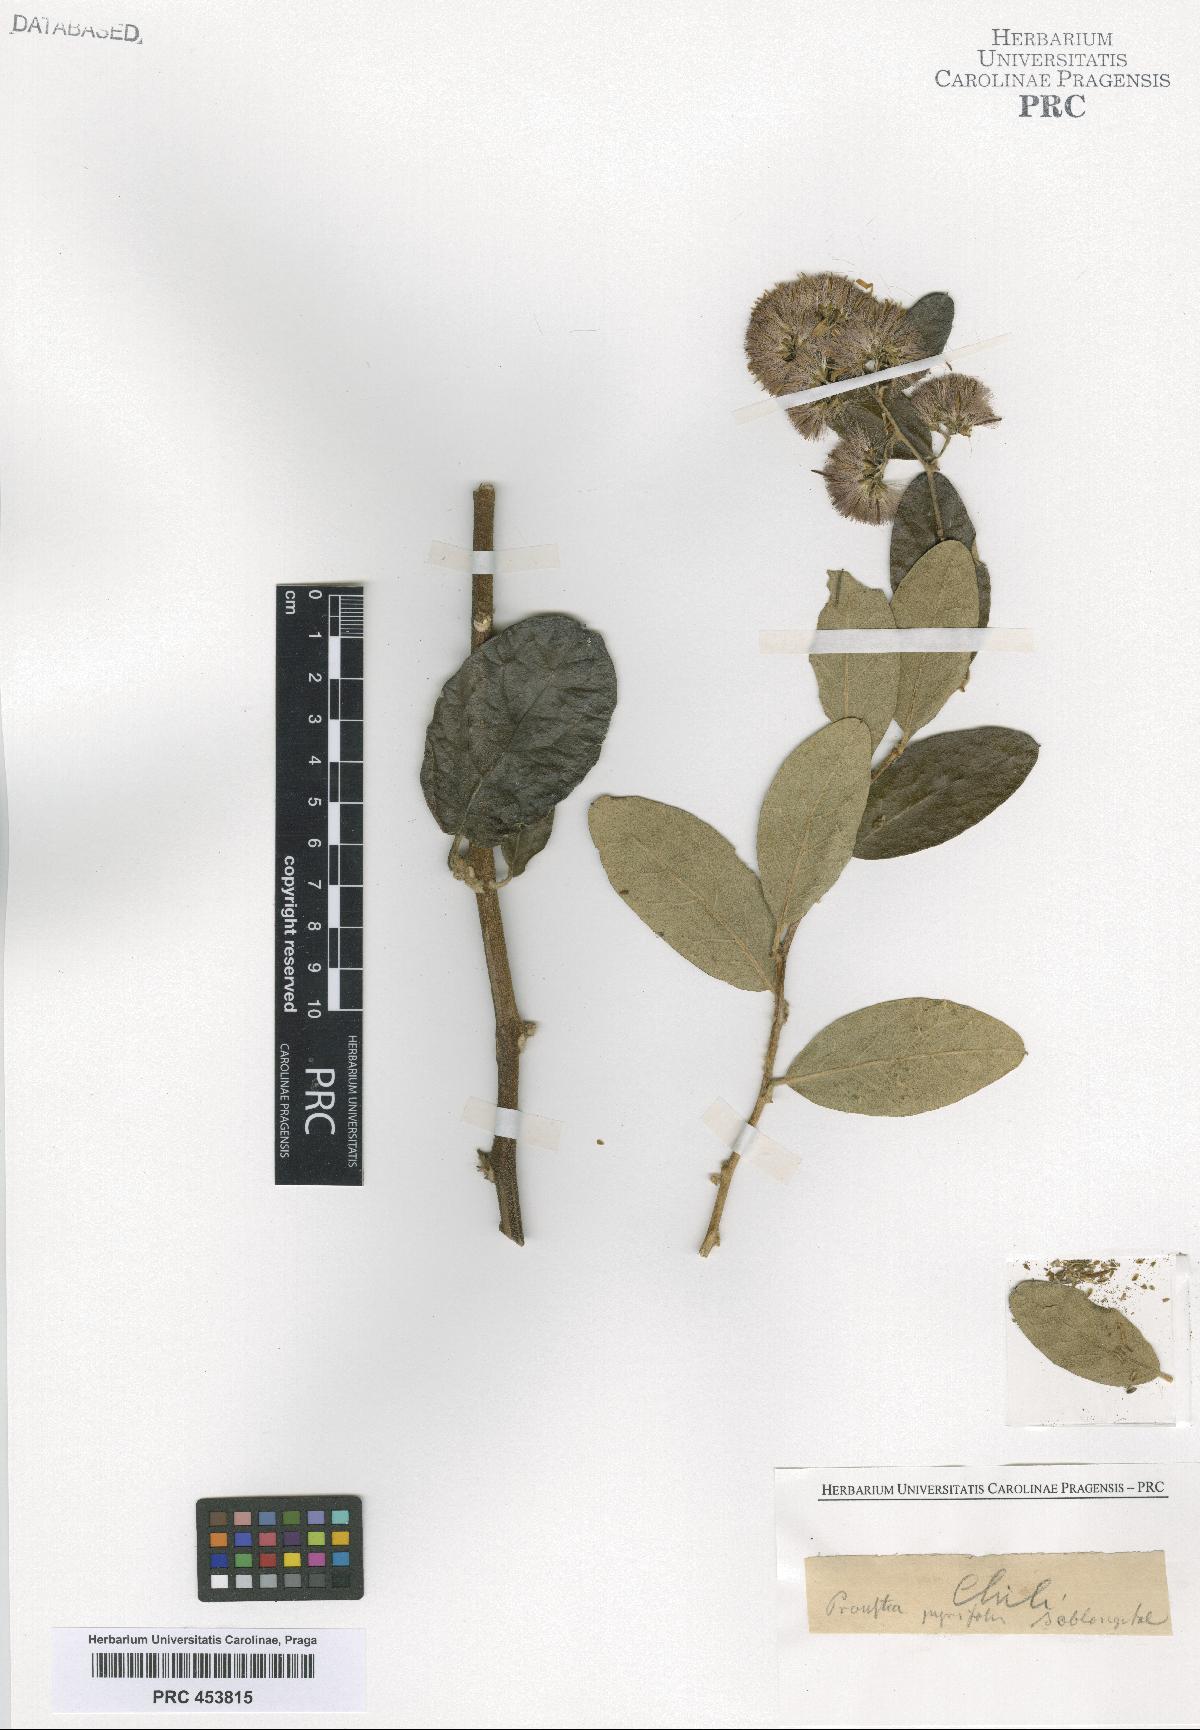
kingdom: Plantae
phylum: Tracheophyta
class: Magnoliopsida
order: Asterales
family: Asteraceae
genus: Proustia
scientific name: Proustia
